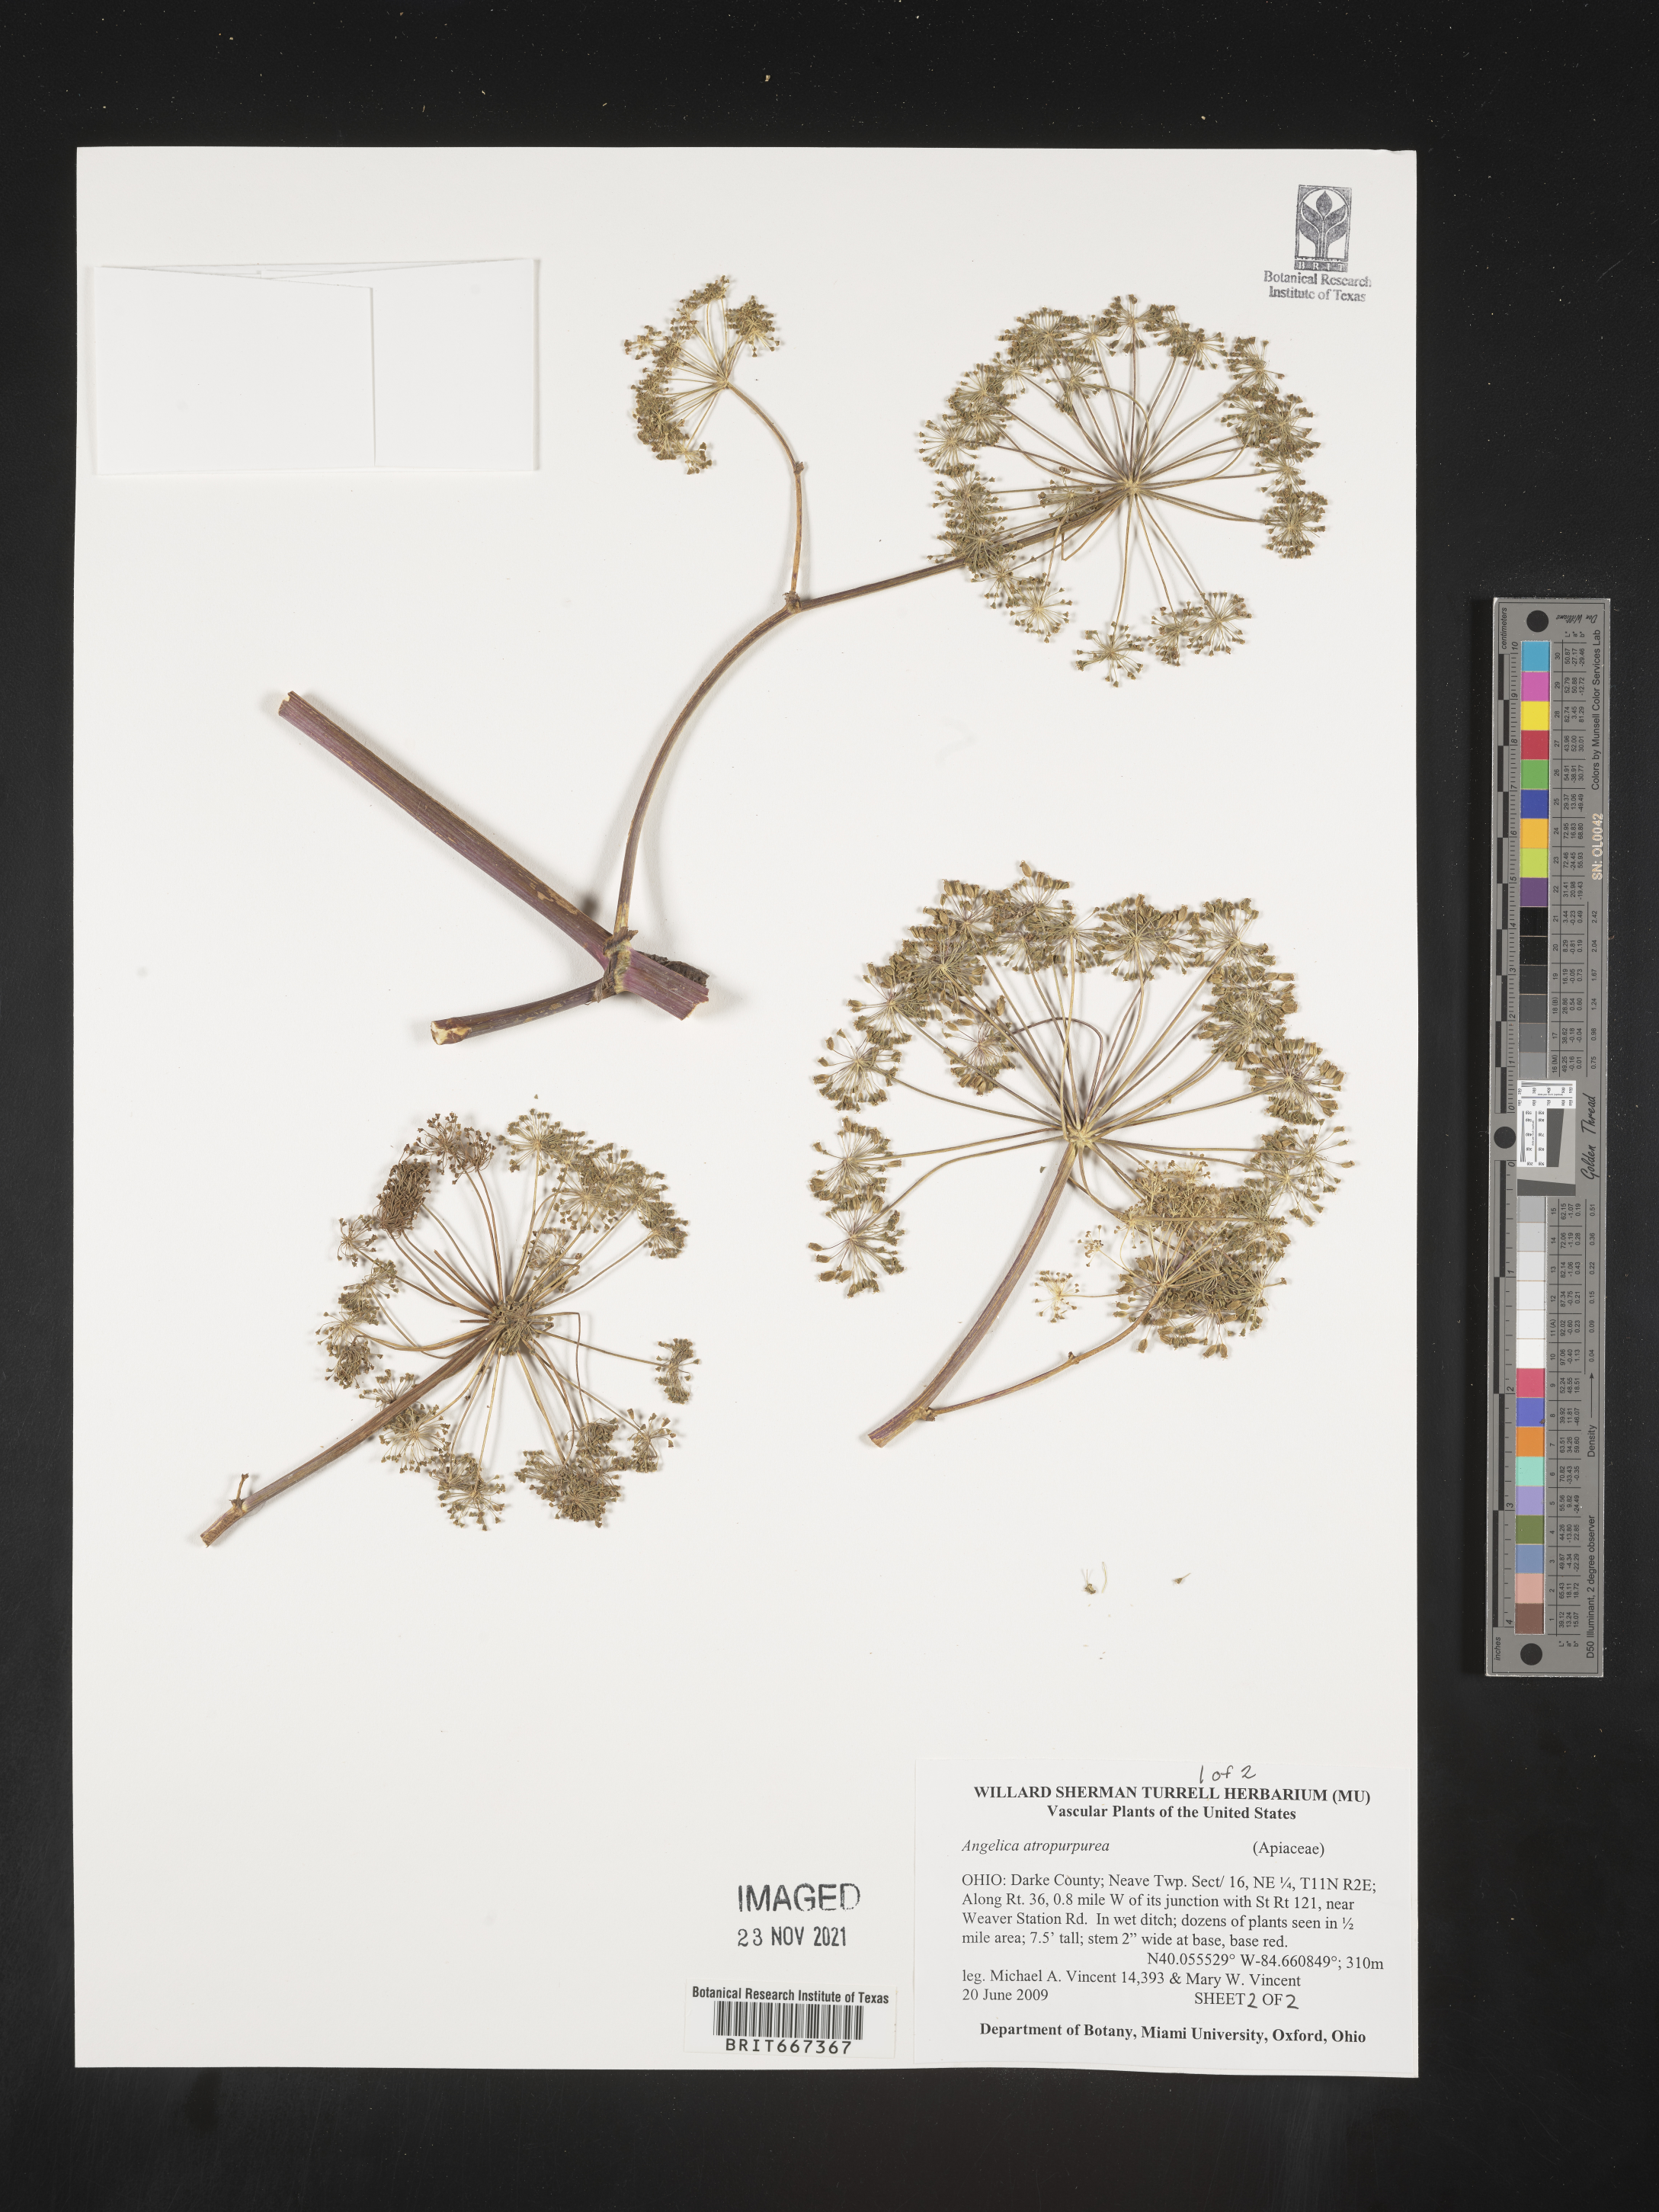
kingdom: Plantae
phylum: Tracheophyta
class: Magnoliopsida
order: Apiales
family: Apiaceae
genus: Angelica
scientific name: Angelica atropurpurea
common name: Great angelica
